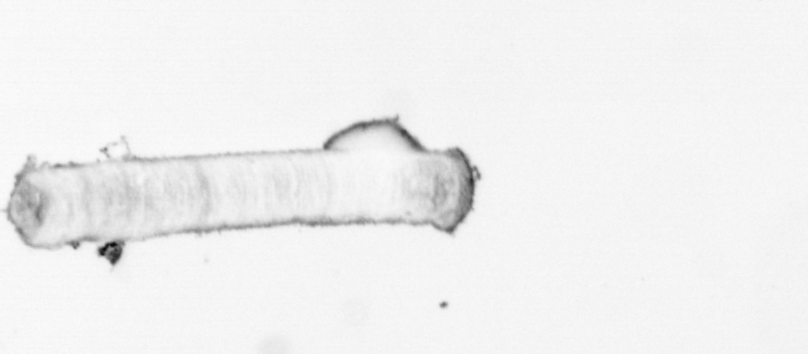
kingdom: Chromista
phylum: Ochrophyta
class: Bacillariophyceae
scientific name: Bacillariophyceae
